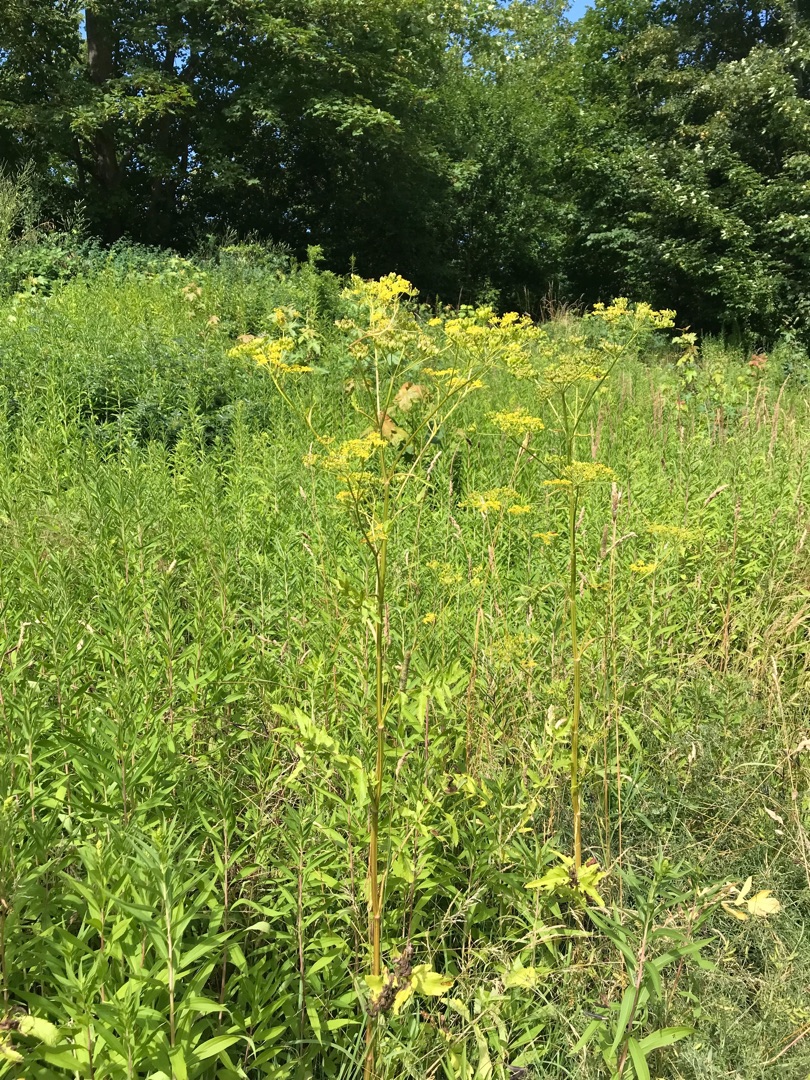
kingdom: Plantae
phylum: Tracheophyta
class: Magnoliopsida
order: Apiales
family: Apiaceae
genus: Pastinaca
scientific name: Pastinaca sativa
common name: Vild pastinak
